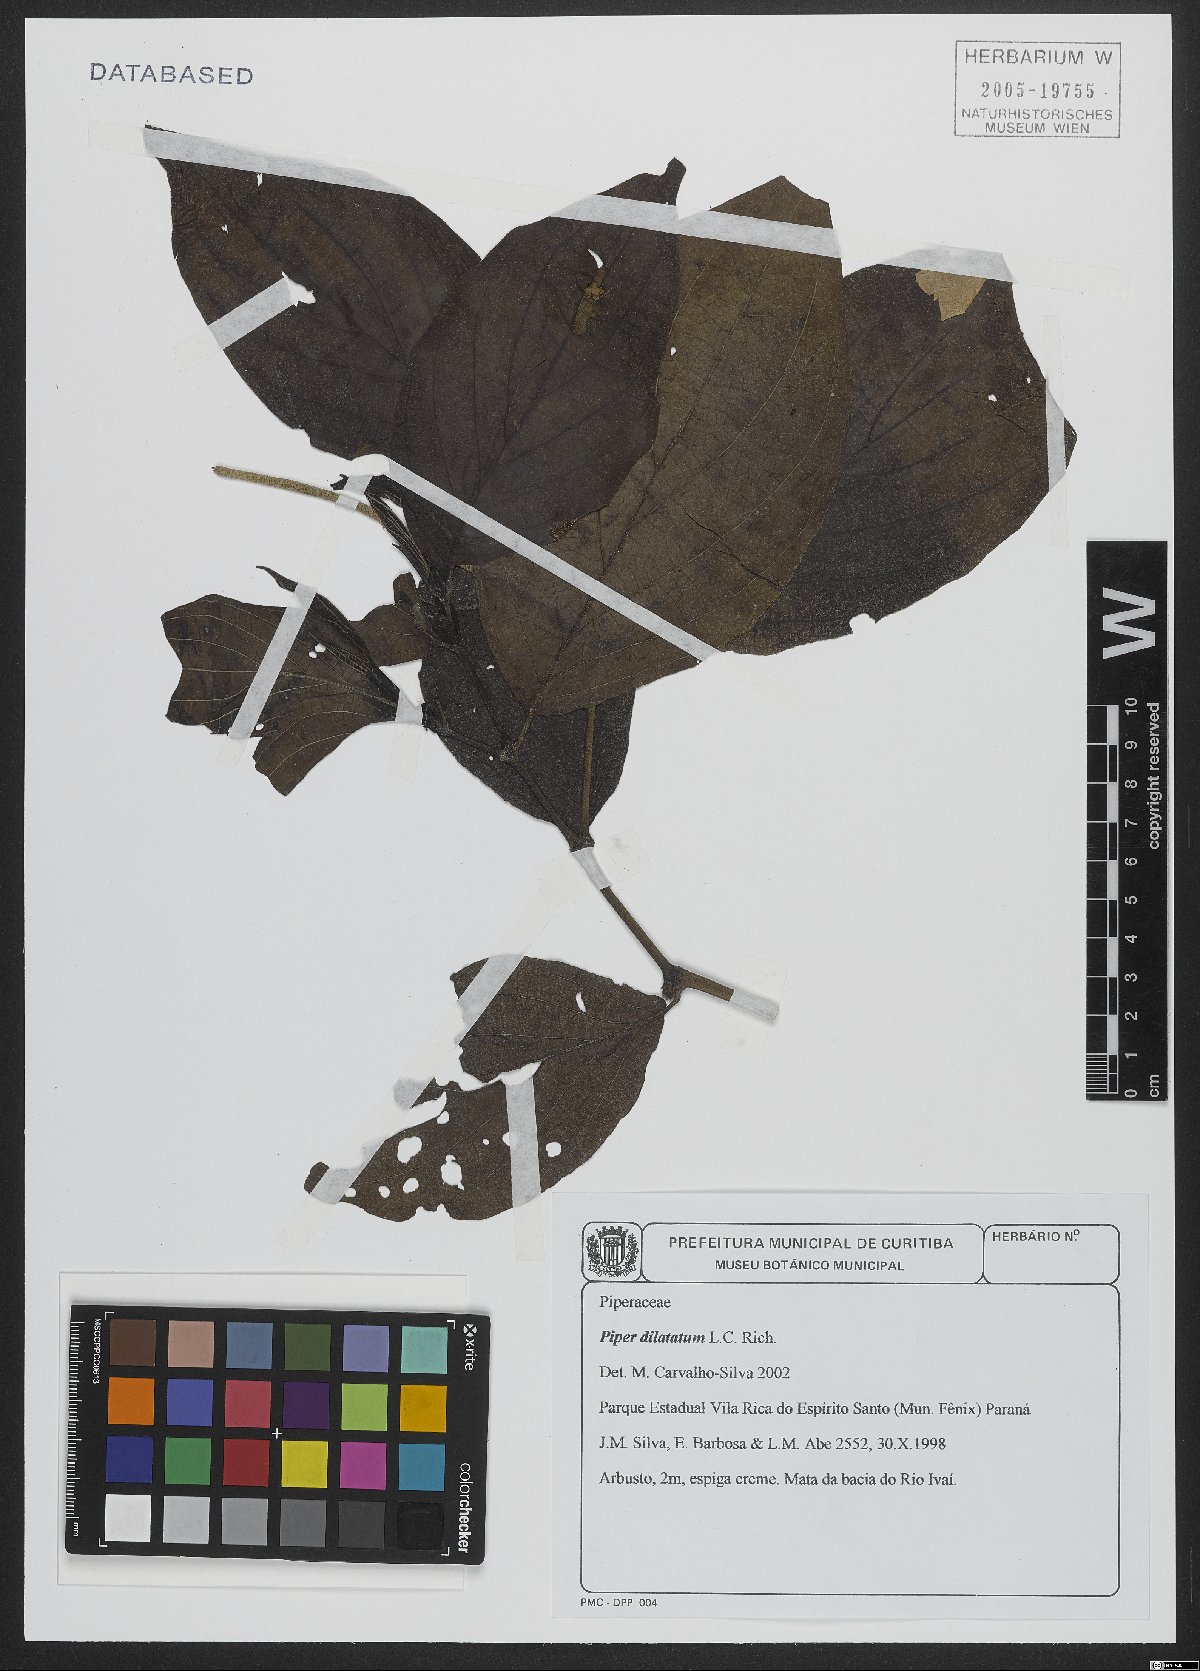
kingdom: Plantae
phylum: Tracheophyta
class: Magnoliopsida
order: Piperales
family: Piperaceae
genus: Piper
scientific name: Piper dilatatum
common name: Higuillo
